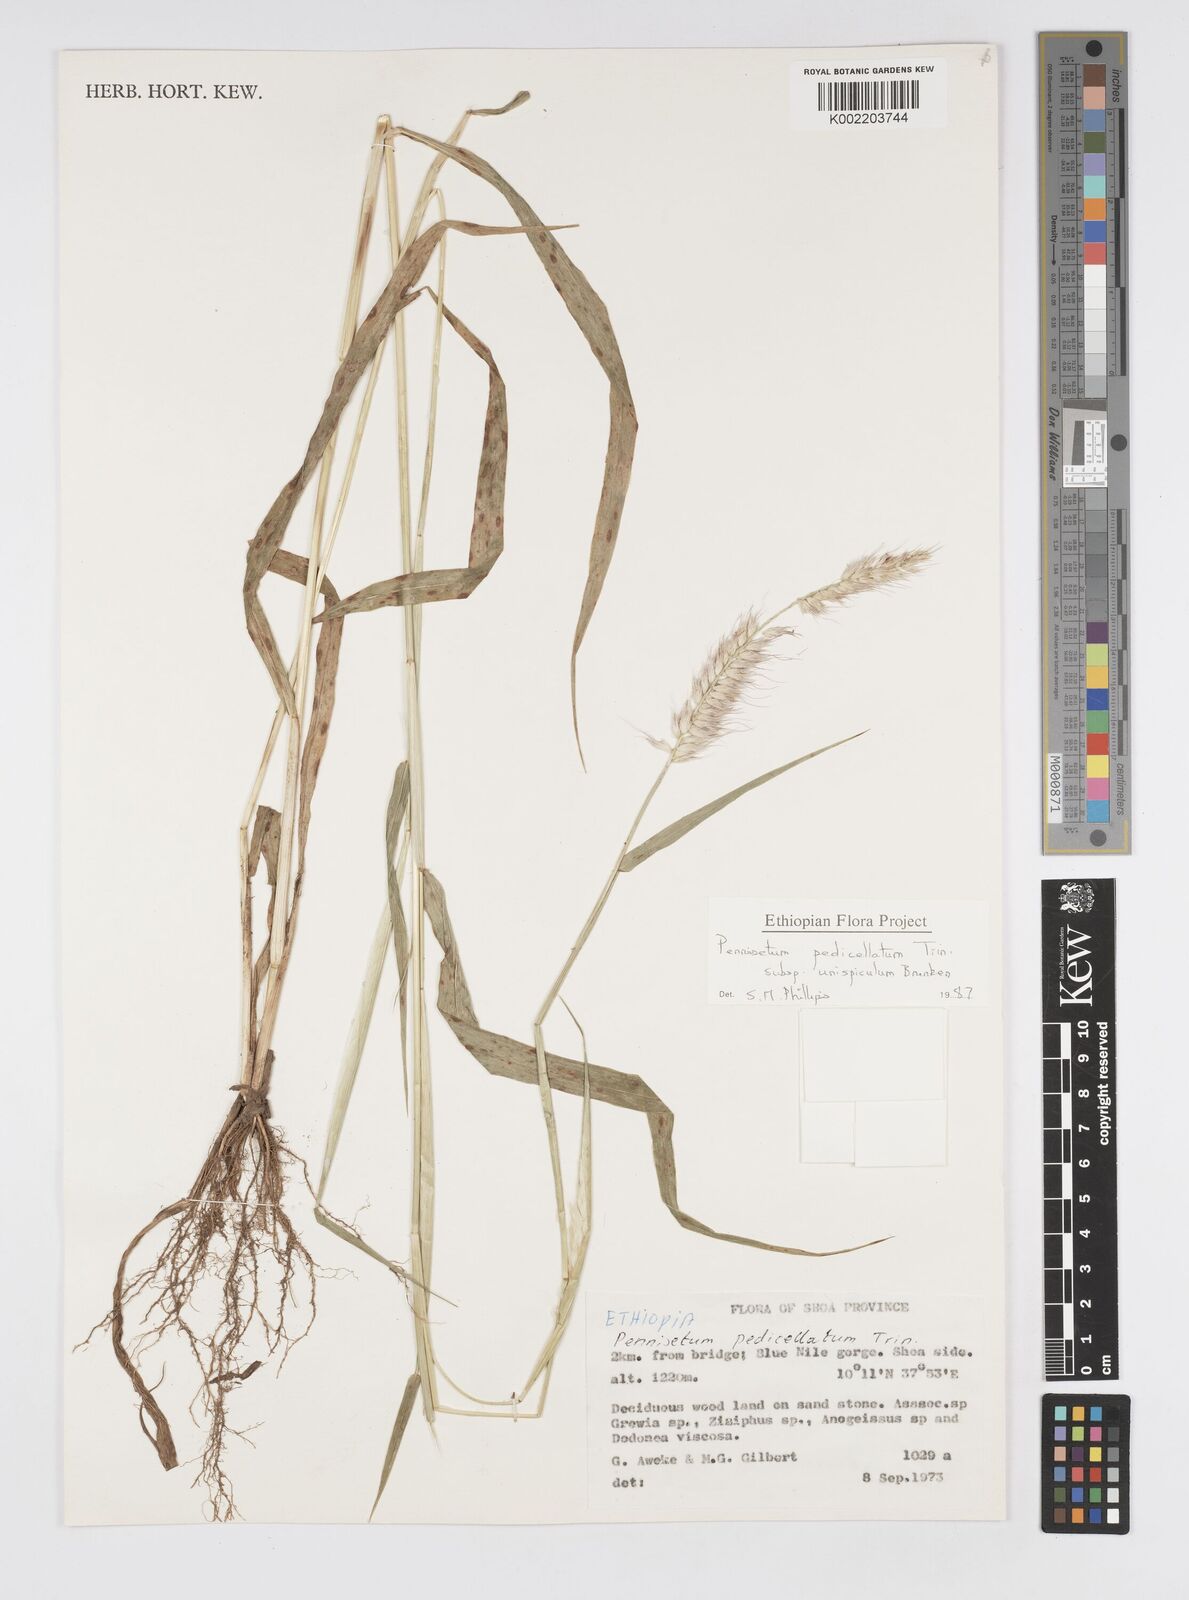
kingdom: Plantae
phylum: Tracheophyta
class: Liliopsida
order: Poales
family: Poaceae
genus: Cenchrus
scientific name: Cenchrus pedicellatus
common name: Hairy fountain grass
